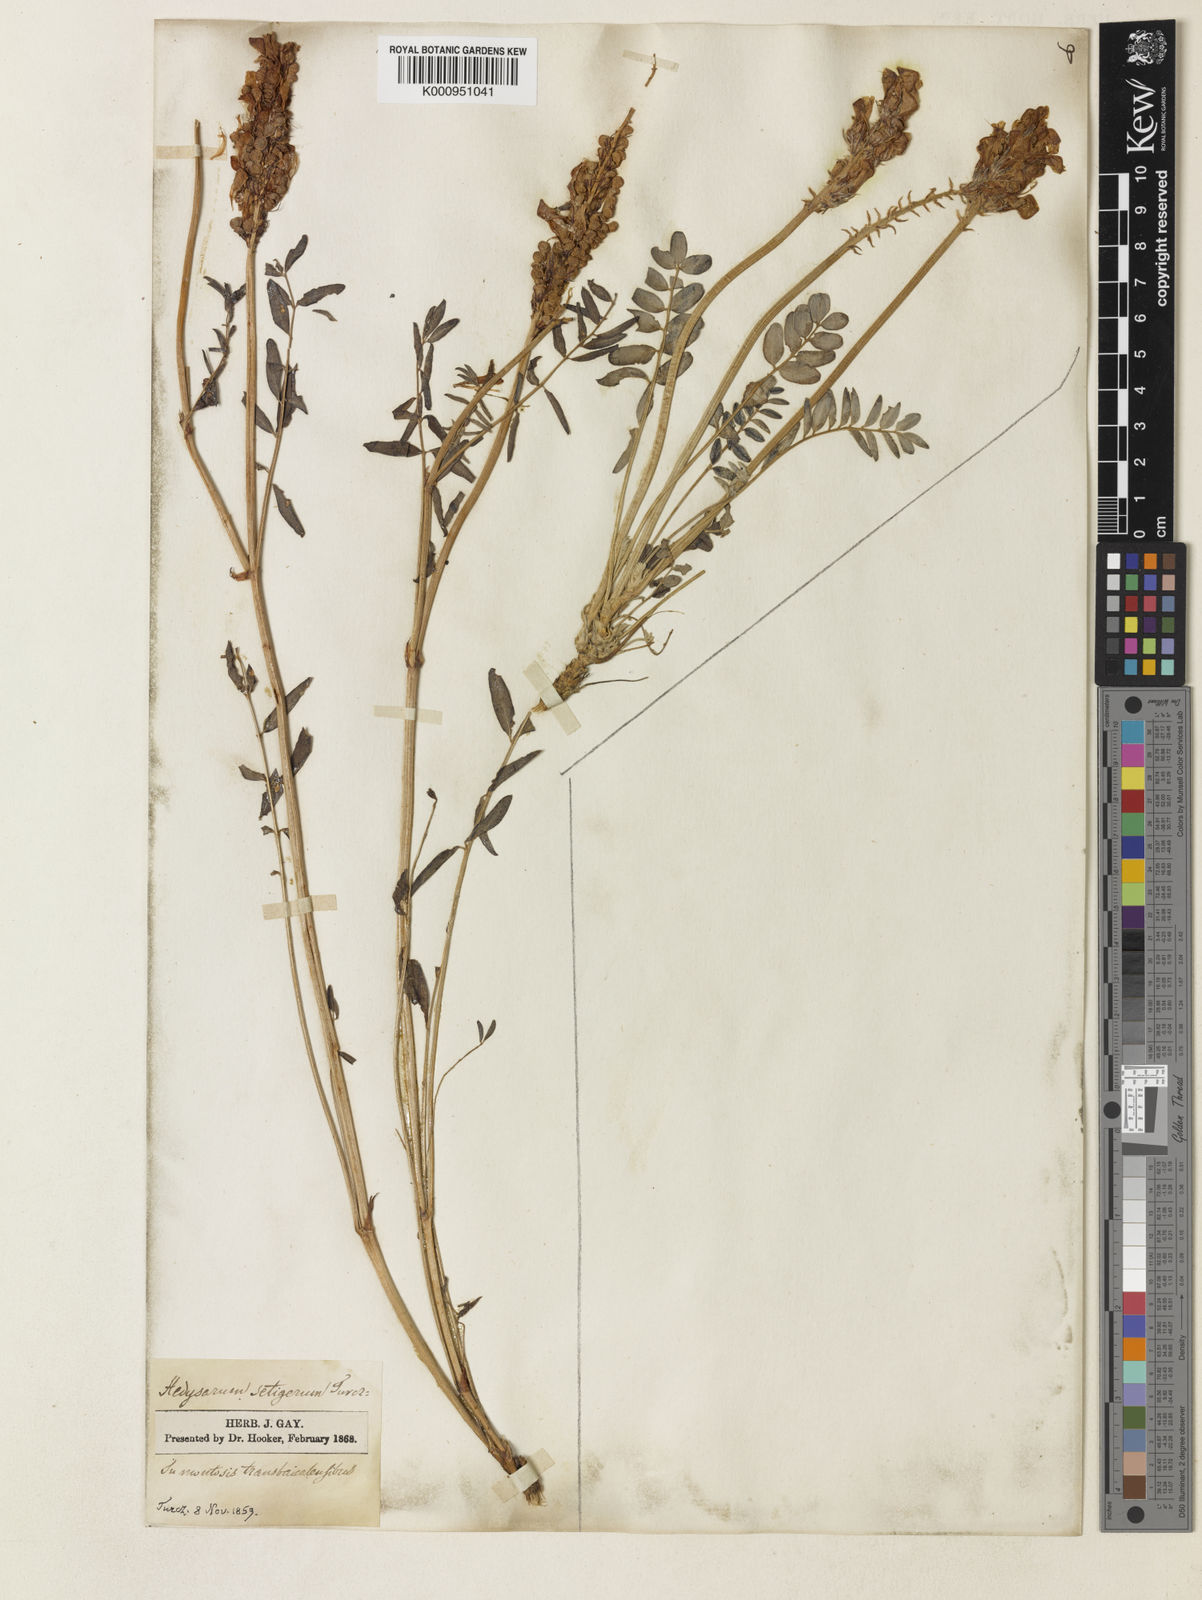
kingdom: Plantae
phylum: Tracheophyta
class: Magnoliopsida
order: Fabales
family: Fabaceae
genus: Hedysarum
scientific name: Hedysarum setigerum
